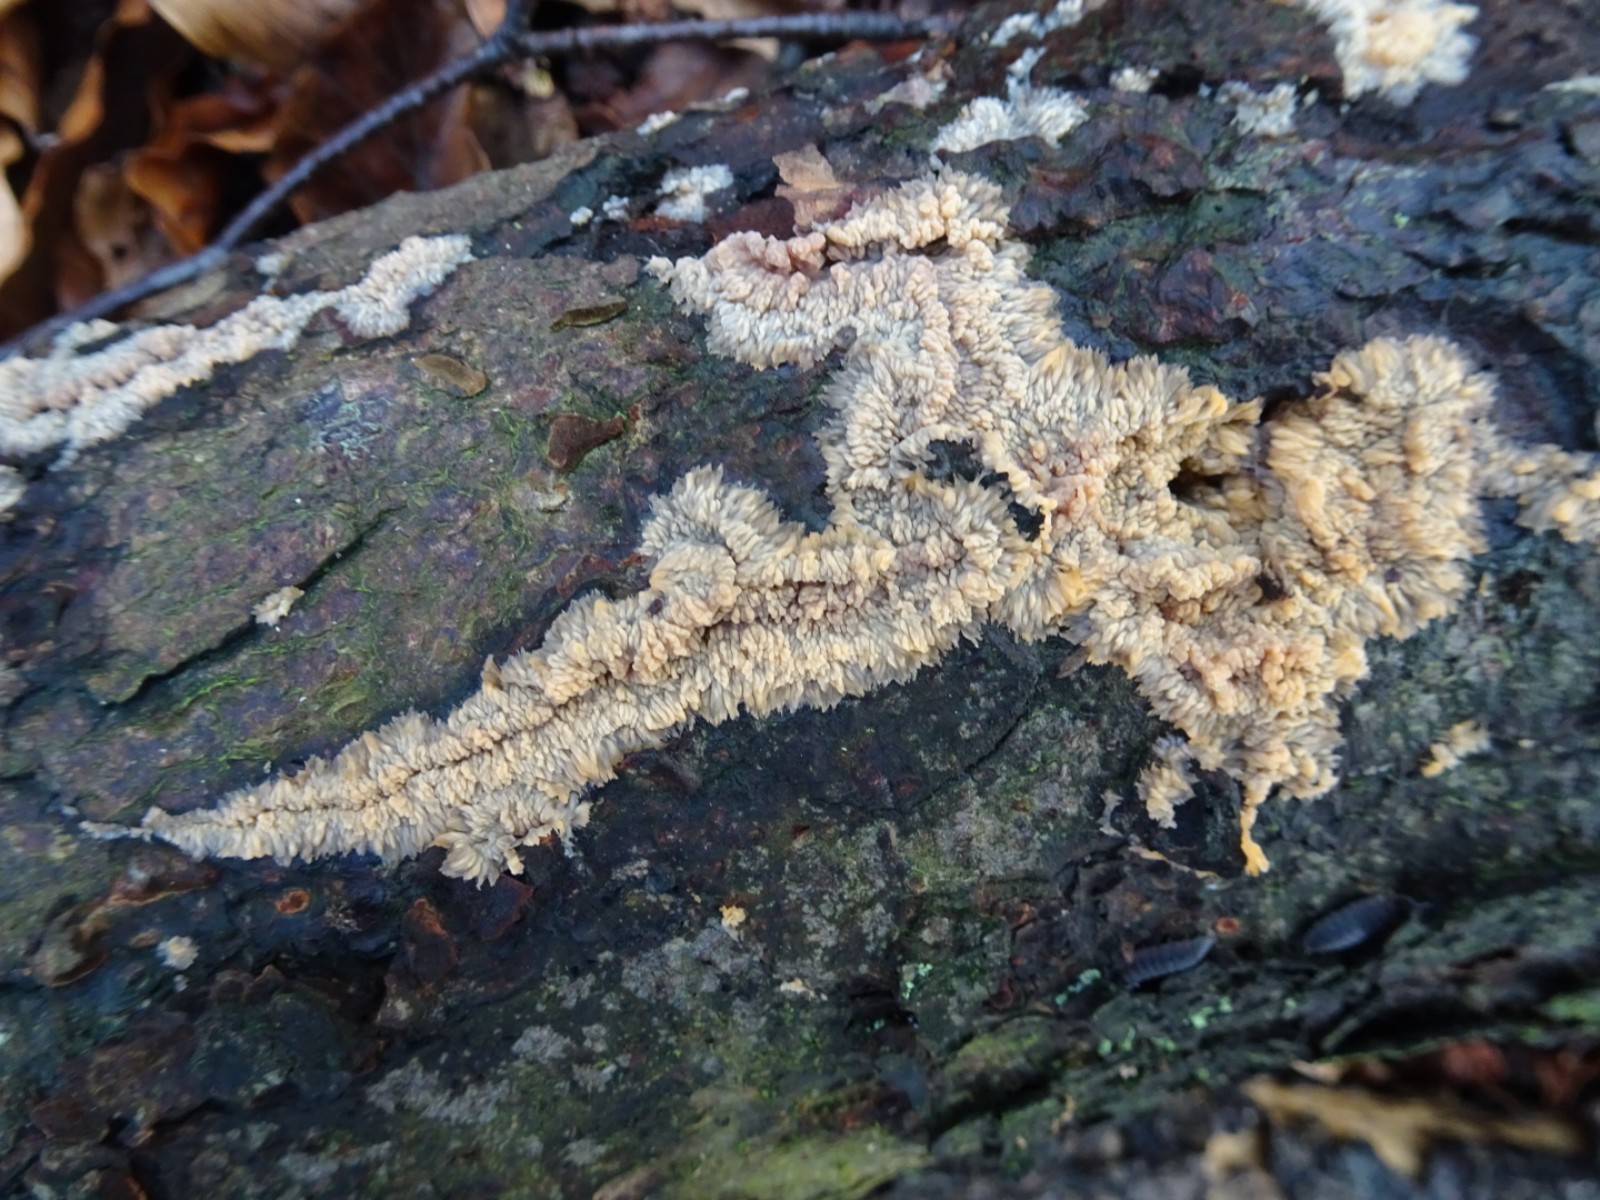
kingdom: Fungi
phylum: Basidiomycota
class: Agaricomycetes
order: Polyporales
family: Meruliaceae
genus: Phlebia
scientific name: Phlebia radiata
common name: stråle-åresvamp
